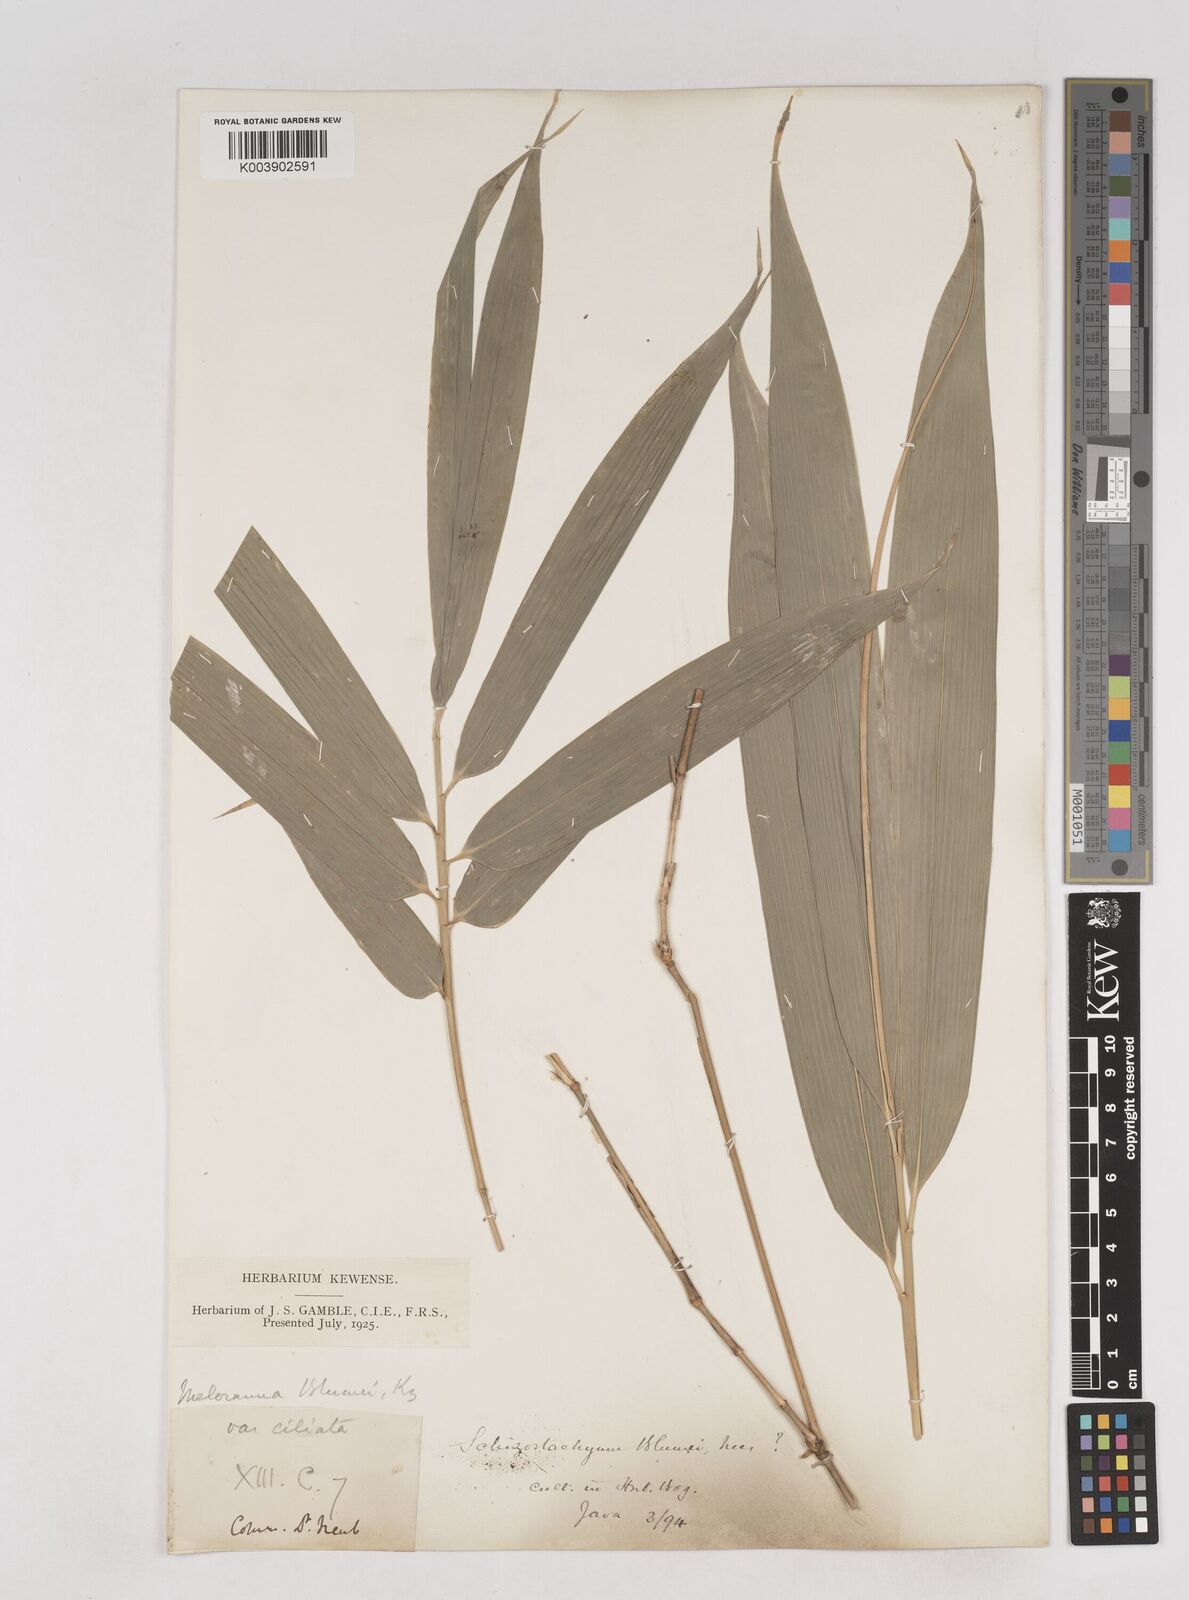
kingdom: Plantae
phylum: Tracheophyta
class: Liliopsida
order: Poales
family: Poaceae
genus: Schizostachyum
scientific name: Schizostachyum
